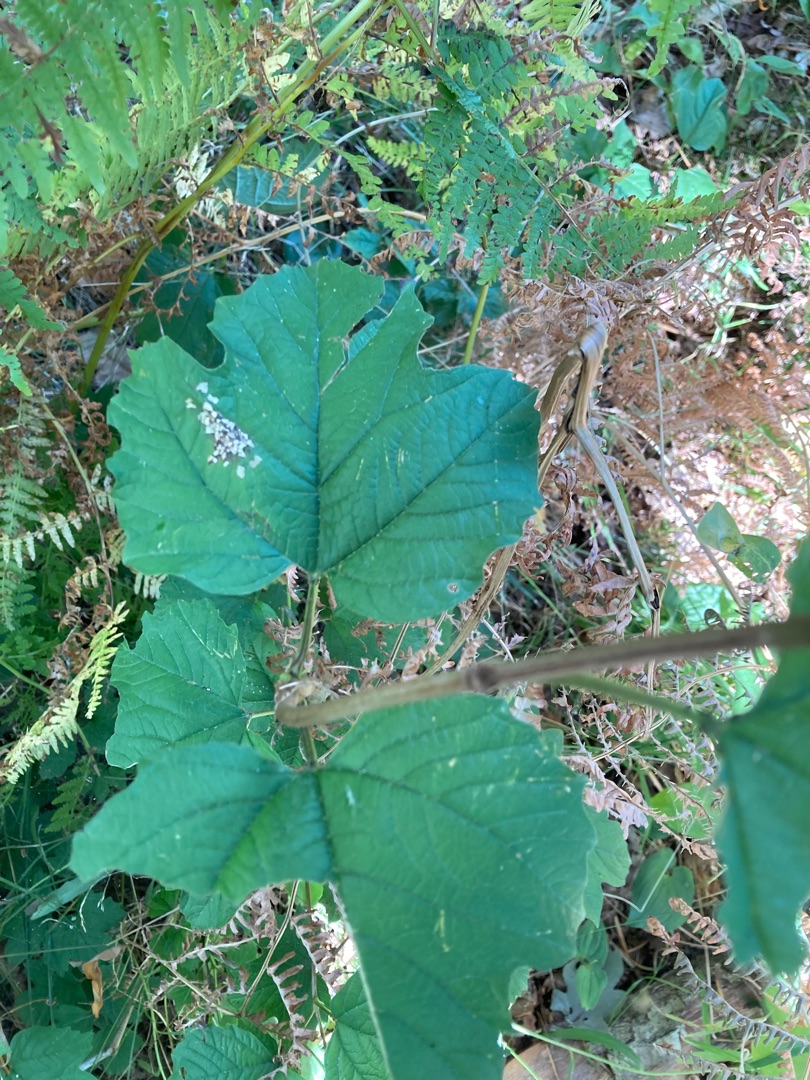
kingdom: Plantae
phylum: Tracheophyta
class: Magnoliopsida
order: Dipsacales
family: Viburnaceae
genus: Viburnum
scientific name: Viburnum opulus
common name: Kvalkved
